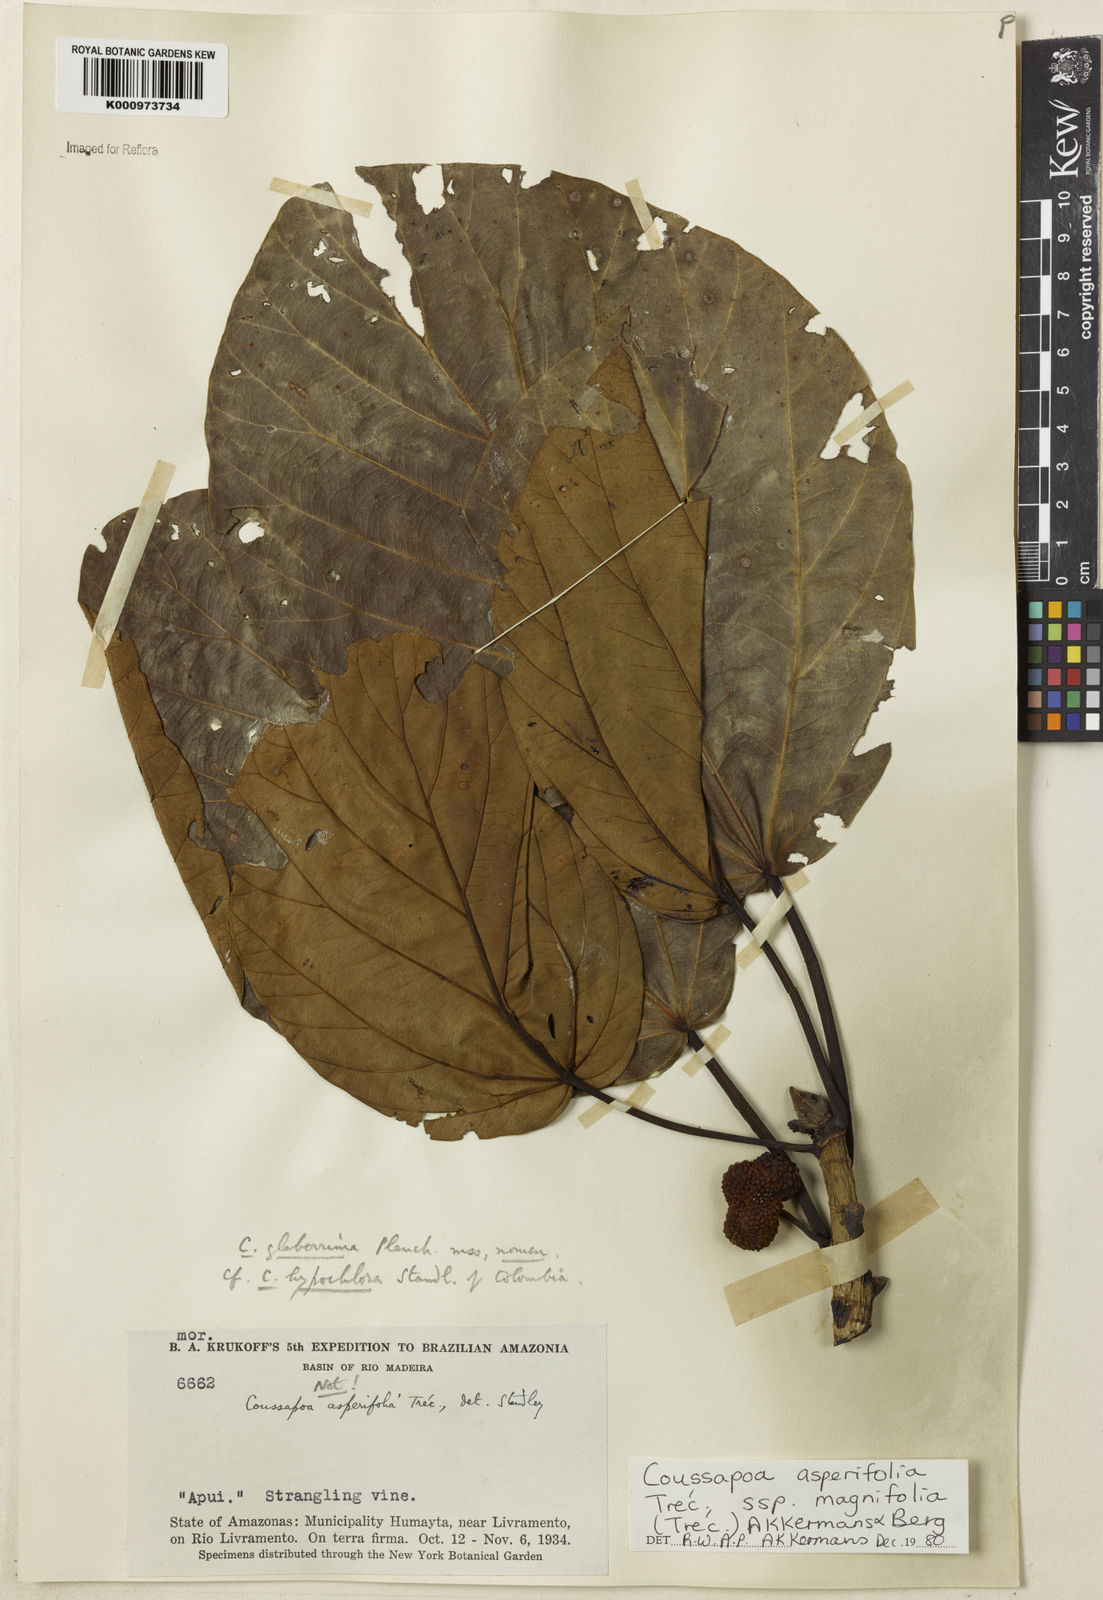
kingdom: Plantae
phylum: Tracheophyta
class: Magnoliopsida
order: Rosales
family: Urticaceae
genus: Coussapoa
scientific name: Coussapoa
